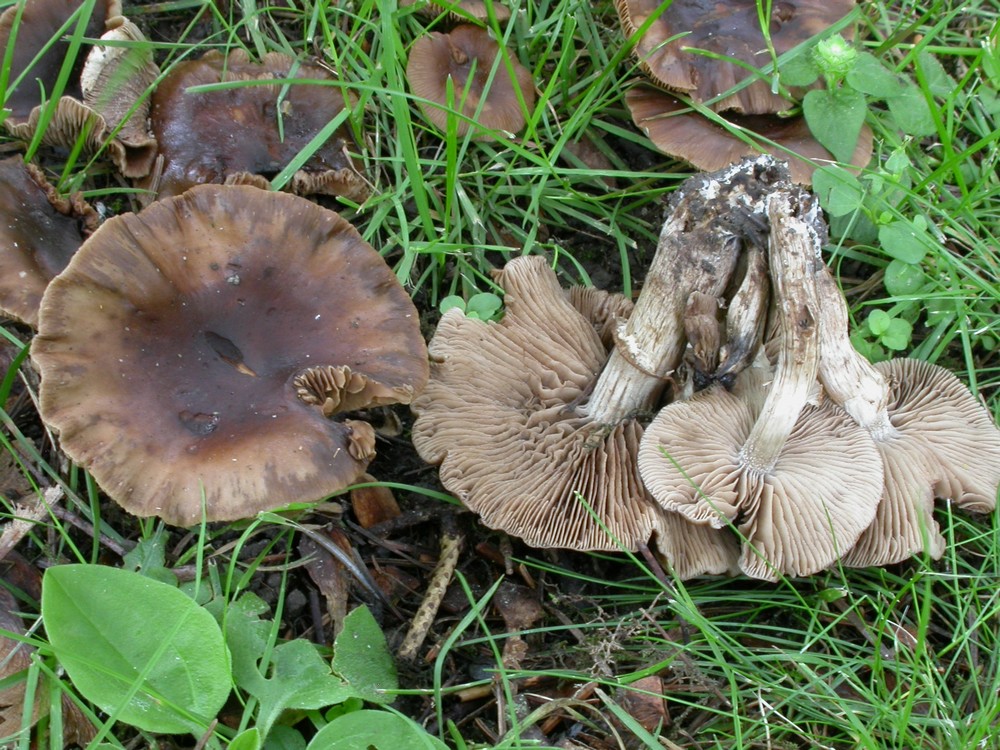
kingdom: Fungi
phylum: Basidiomycota
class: Agaricomycetes
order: Agaricales
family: Tubariaceae
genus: Cyclocybe
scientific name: Cyclocybe erebia
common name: mørk agerhat
